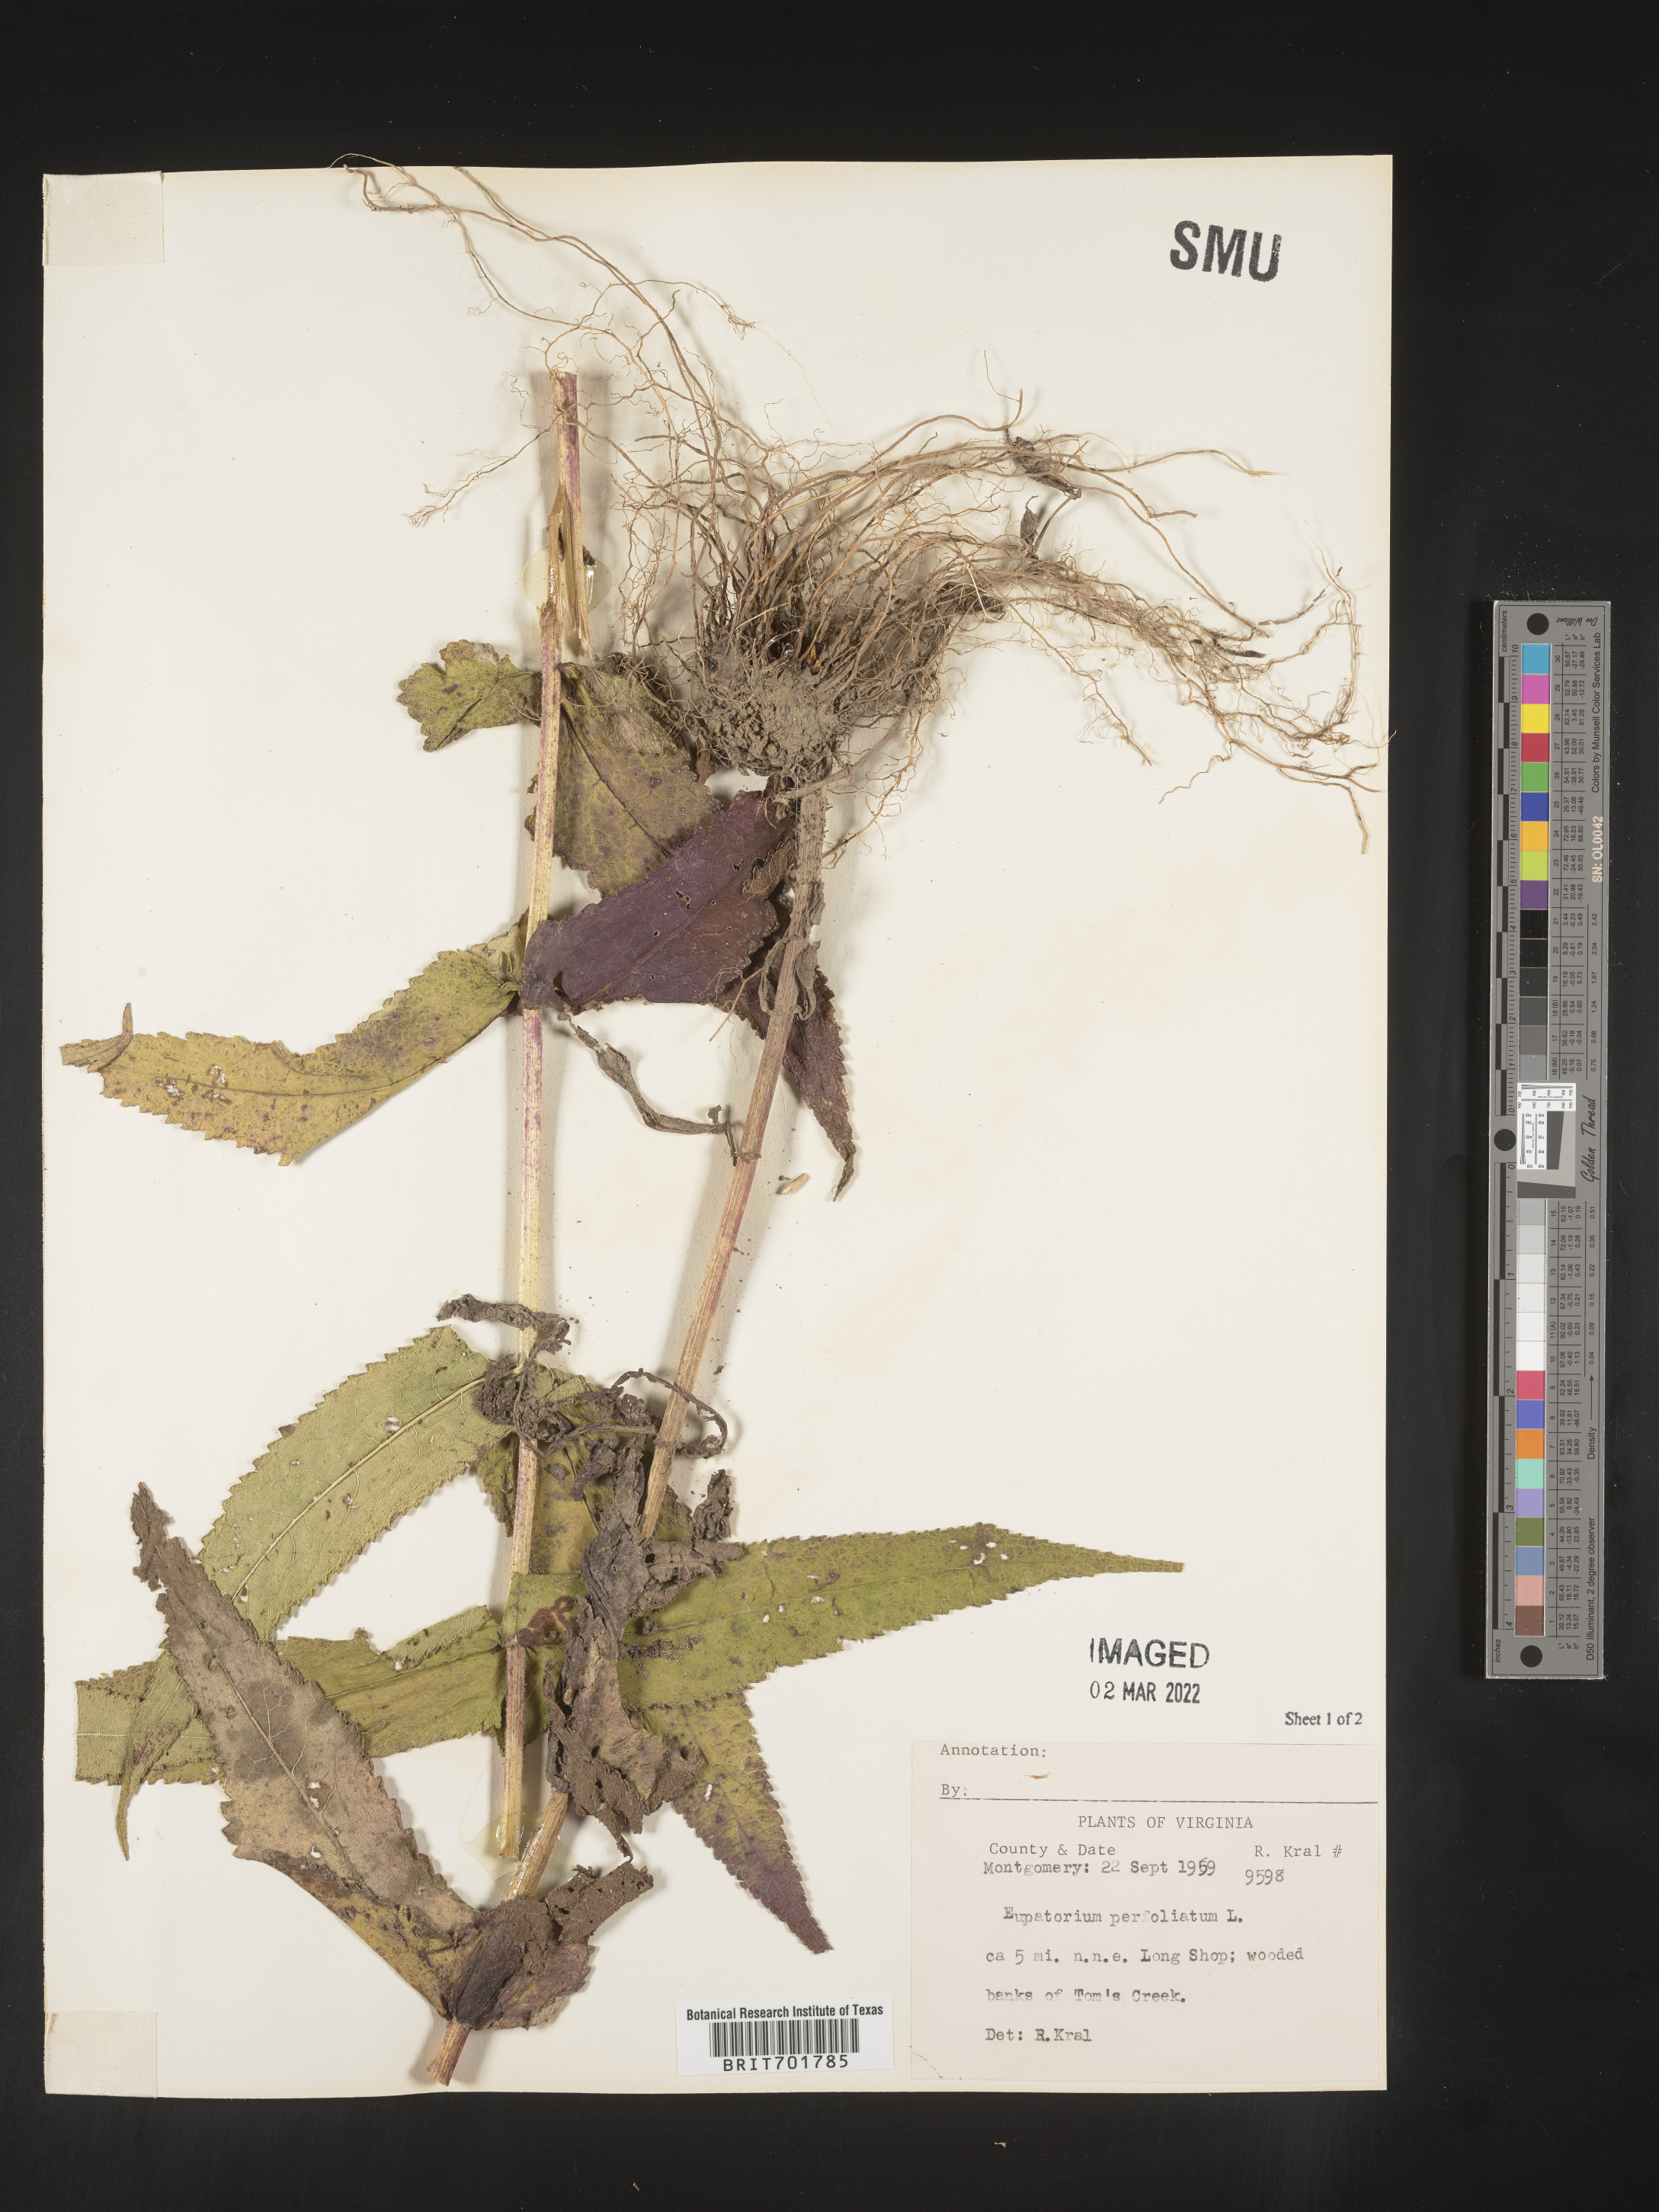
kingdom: Plantae
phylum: Tracheophyta
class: Magnoliopsida
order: Asterales
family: Asteraceae
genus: Eupatorium
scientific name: Eupatorium perfoliatum
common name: Boneset
